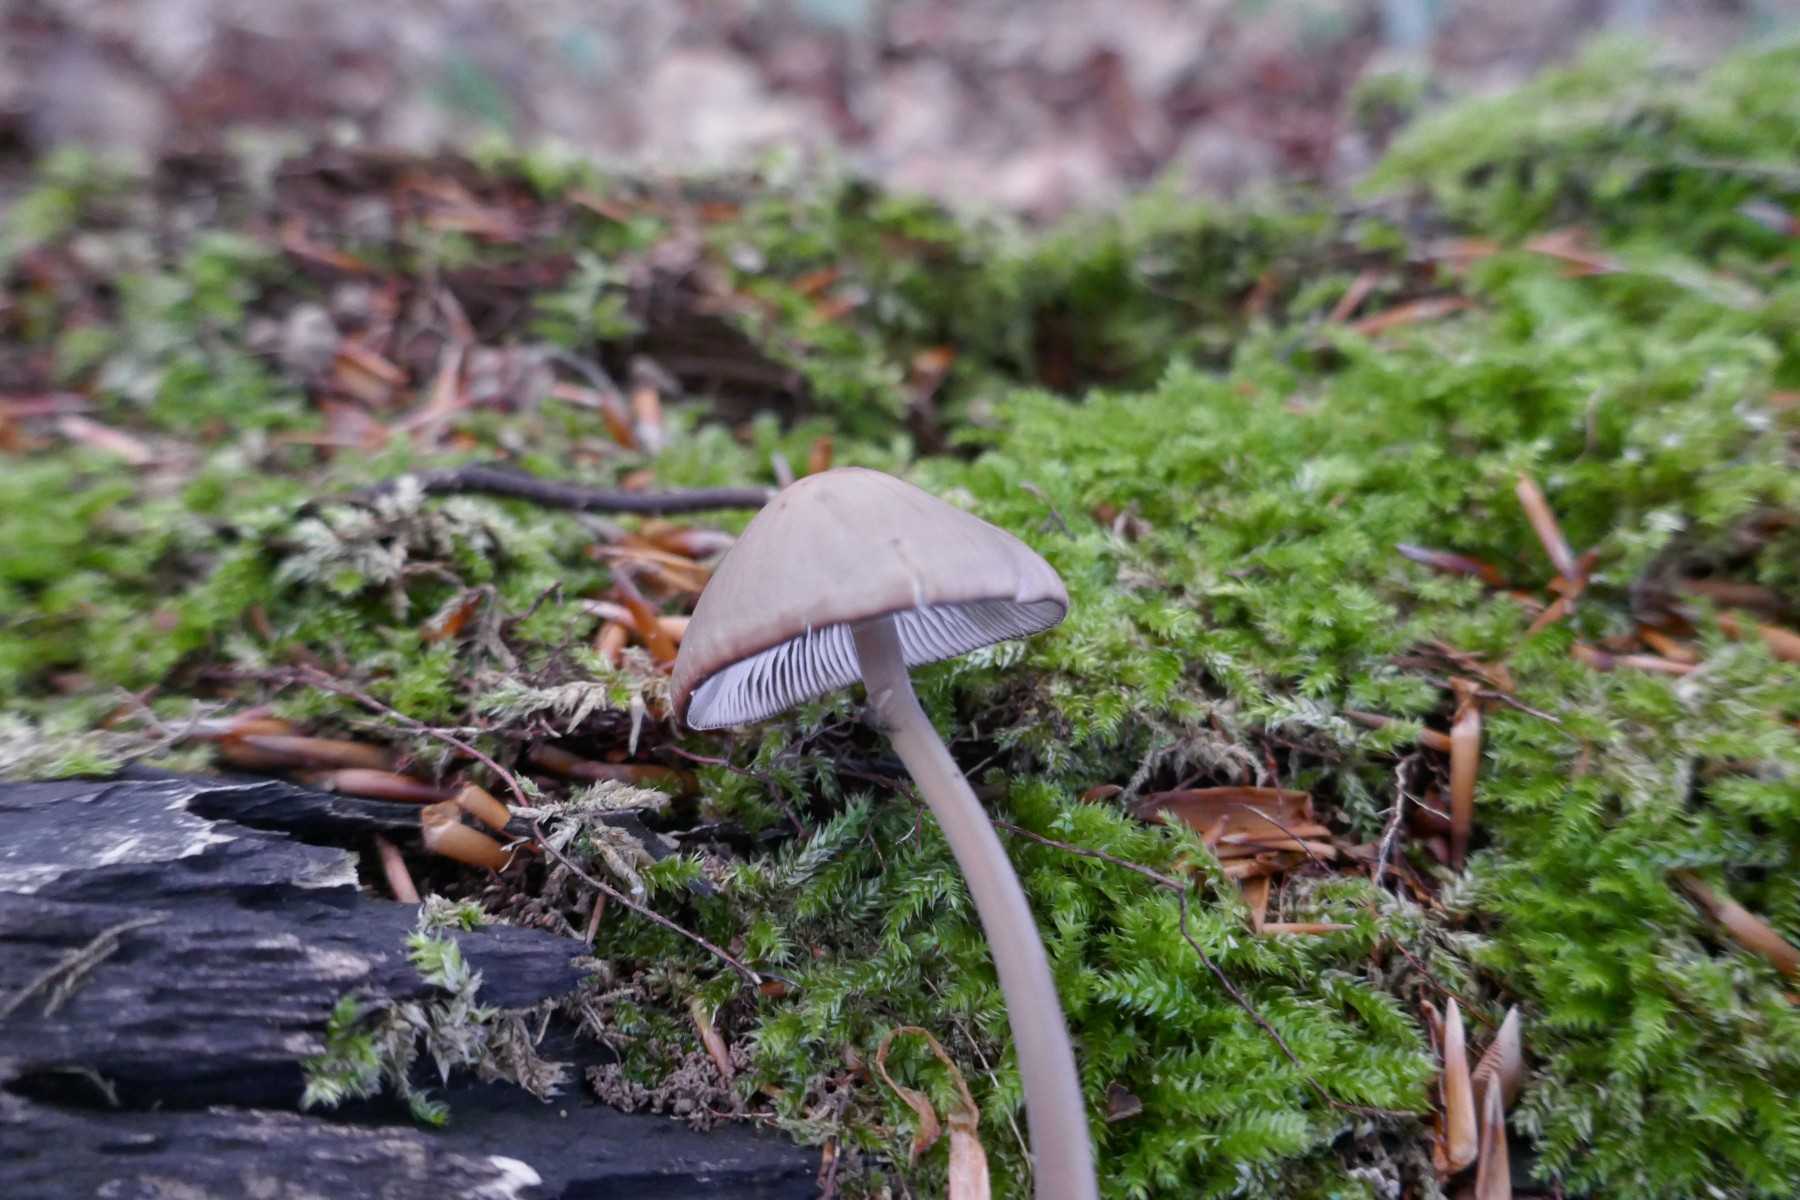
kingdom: Fungi
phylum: Basidiomycota
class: Agaricomycetes
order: Agaricales
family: Mycenaceae
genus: Mycena
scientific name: Mycena galericulata
